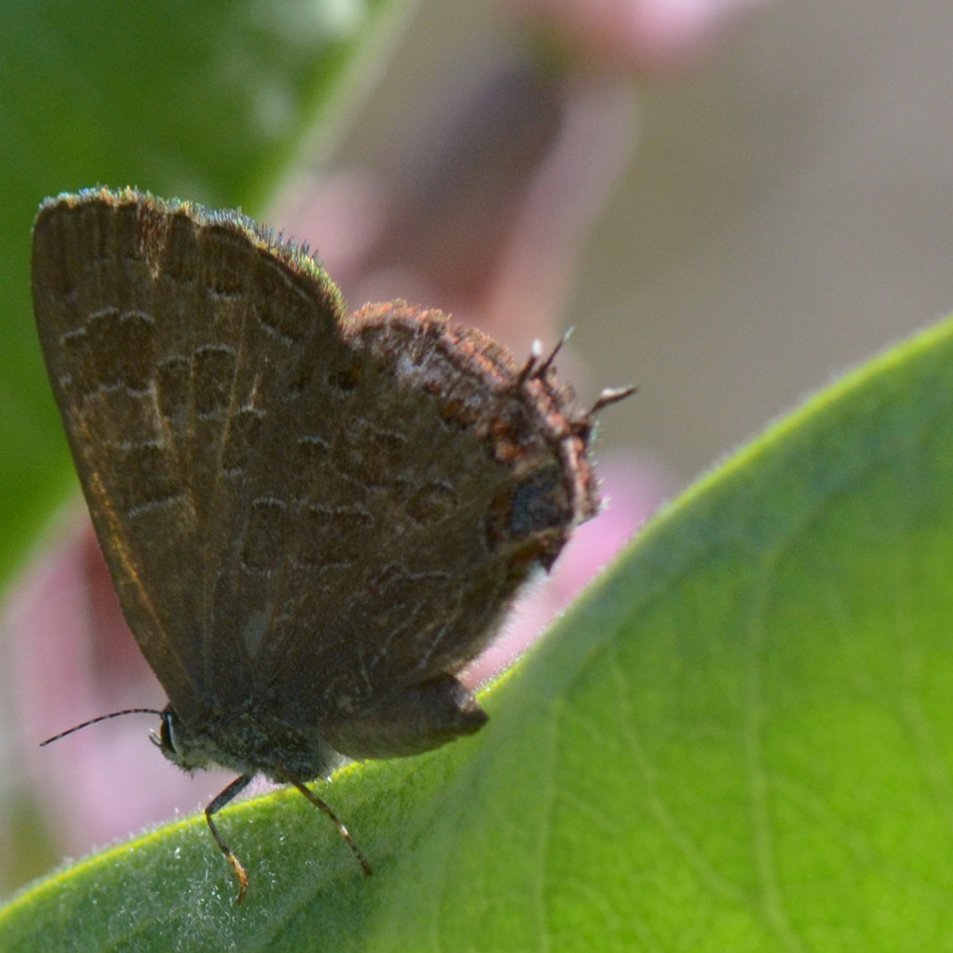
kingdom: Animalia
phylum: Arthropoda
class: Insecta
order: Lepidoptera
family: Lycaenidae
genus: Satyrium
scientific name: Satyrium liparops
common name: Striped Hairstreak
